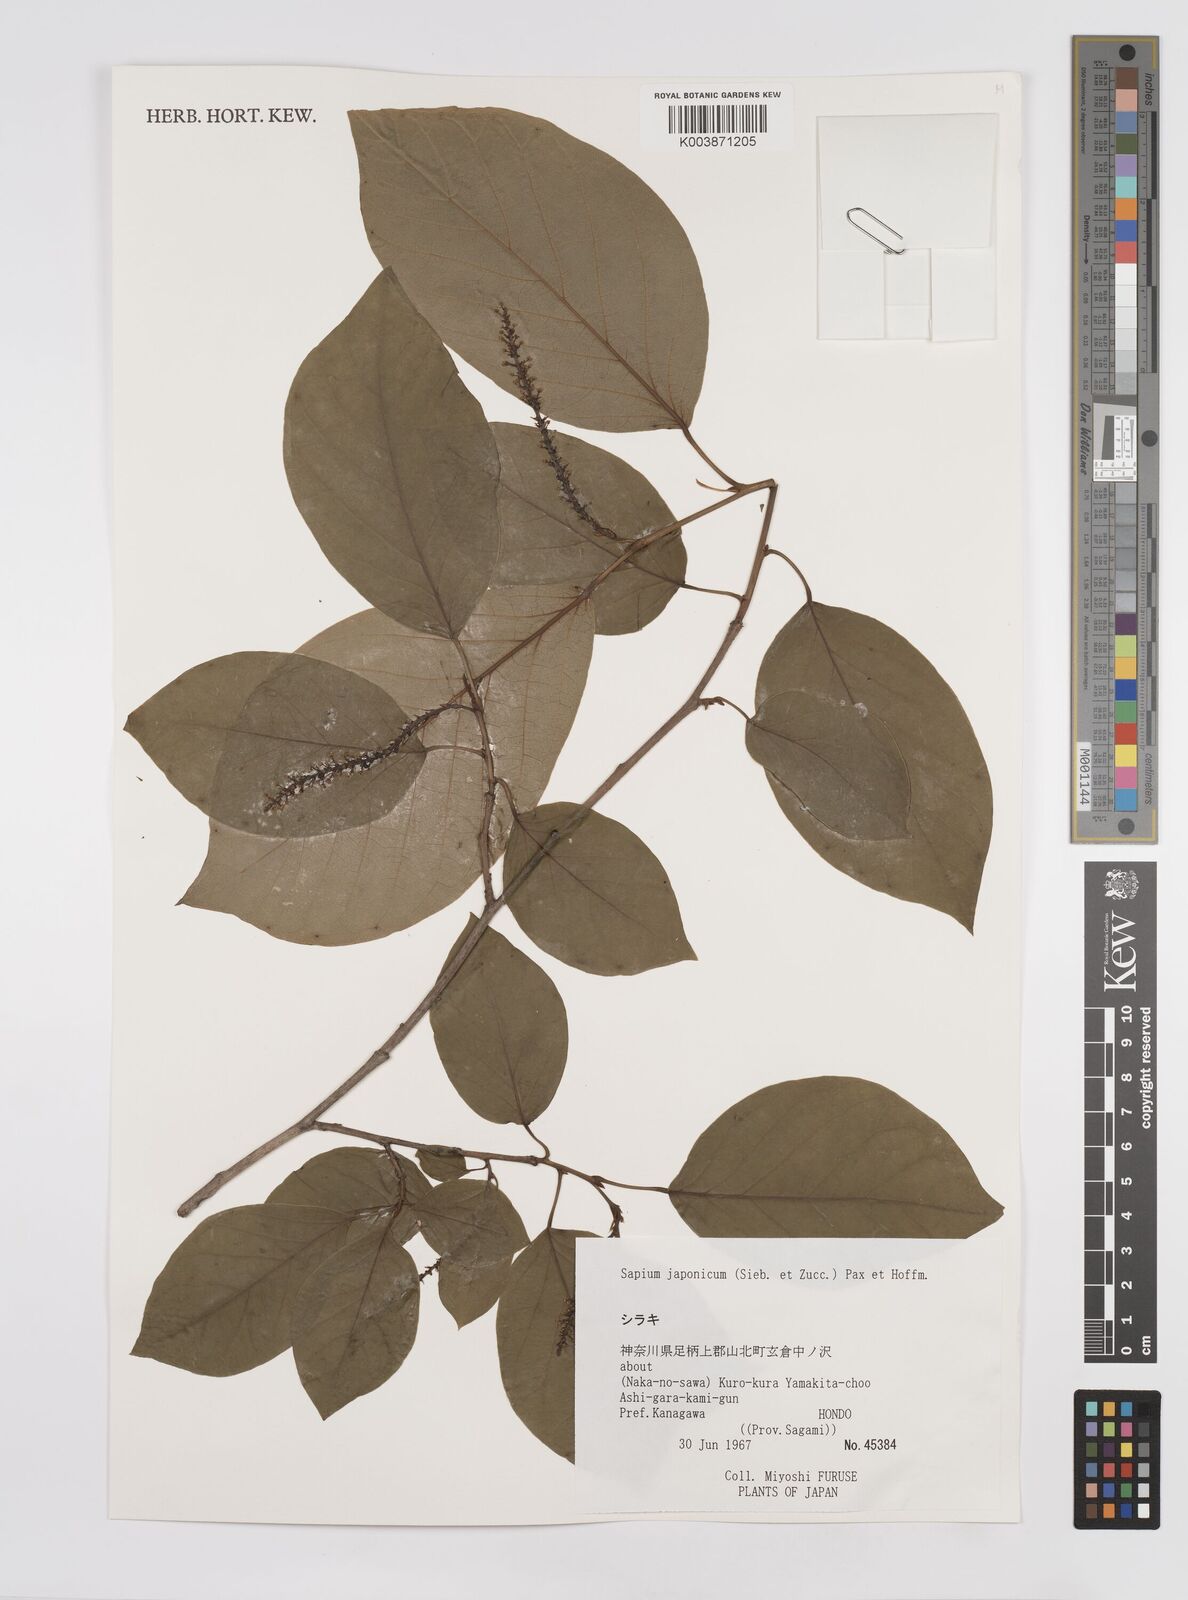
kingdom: Plantae
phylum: Tracheophyta
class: Magnoliopsida
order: Malpighiales
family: Euphorbiaceae
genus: Neoshirakia
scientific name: Neoshirakia japonica
